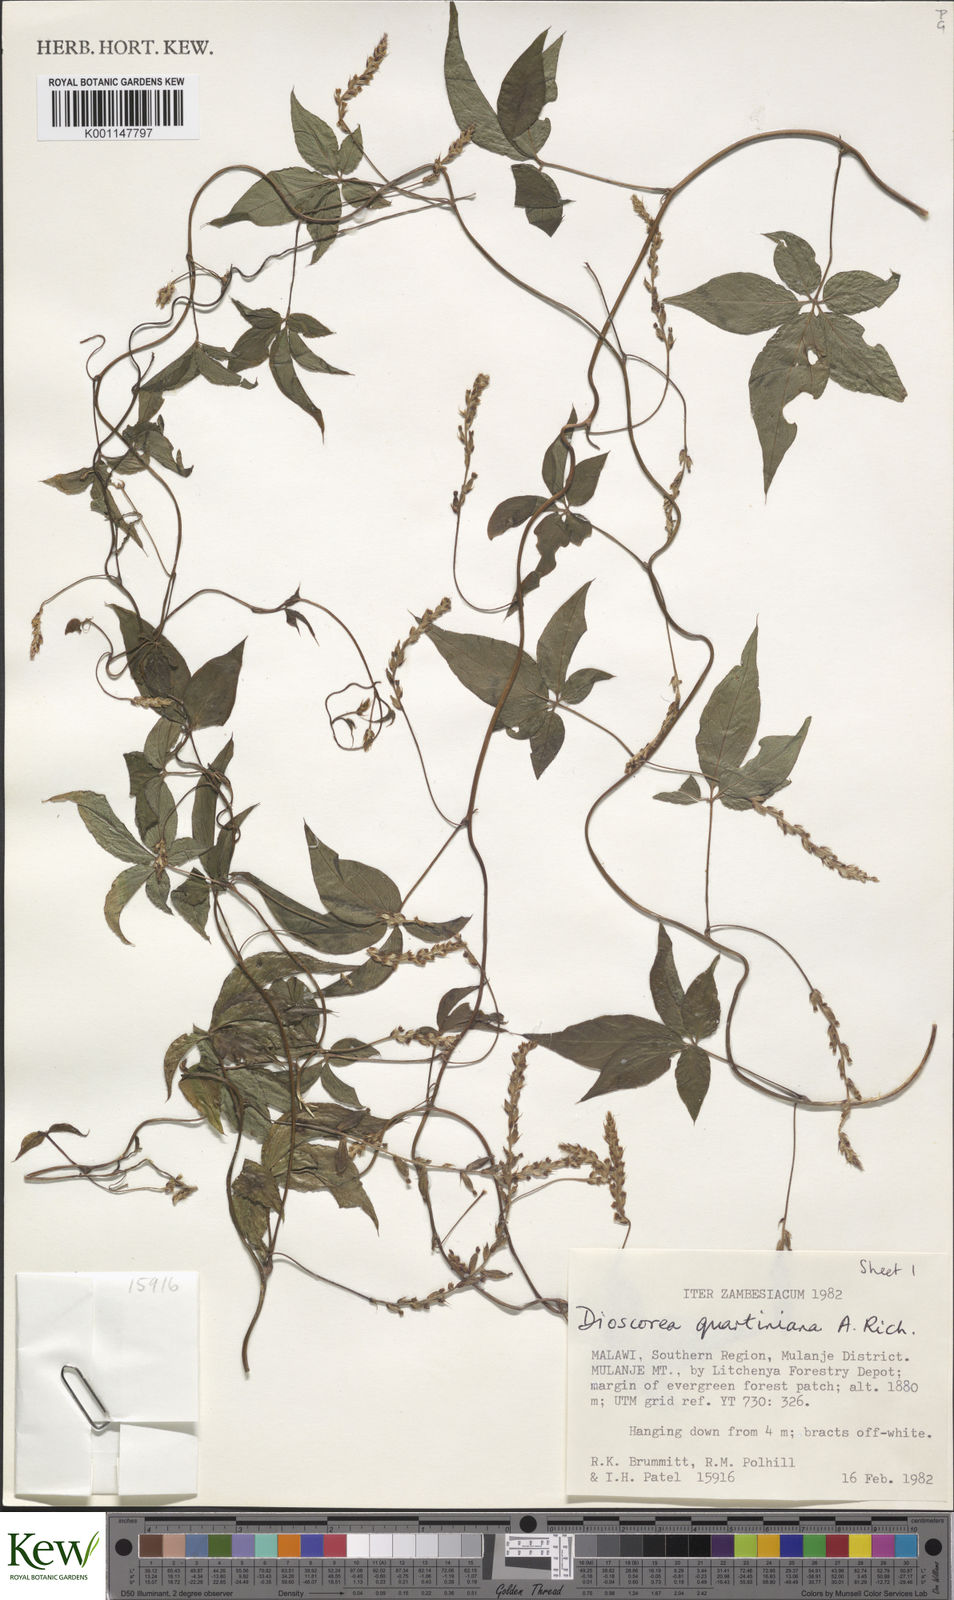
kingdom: Plantae
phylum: Tracheophyta
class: Liliopsida
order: Dioscoreales
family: Dioscoreaceae
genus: Dioscorea
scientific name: Dioscorea quartiniana
